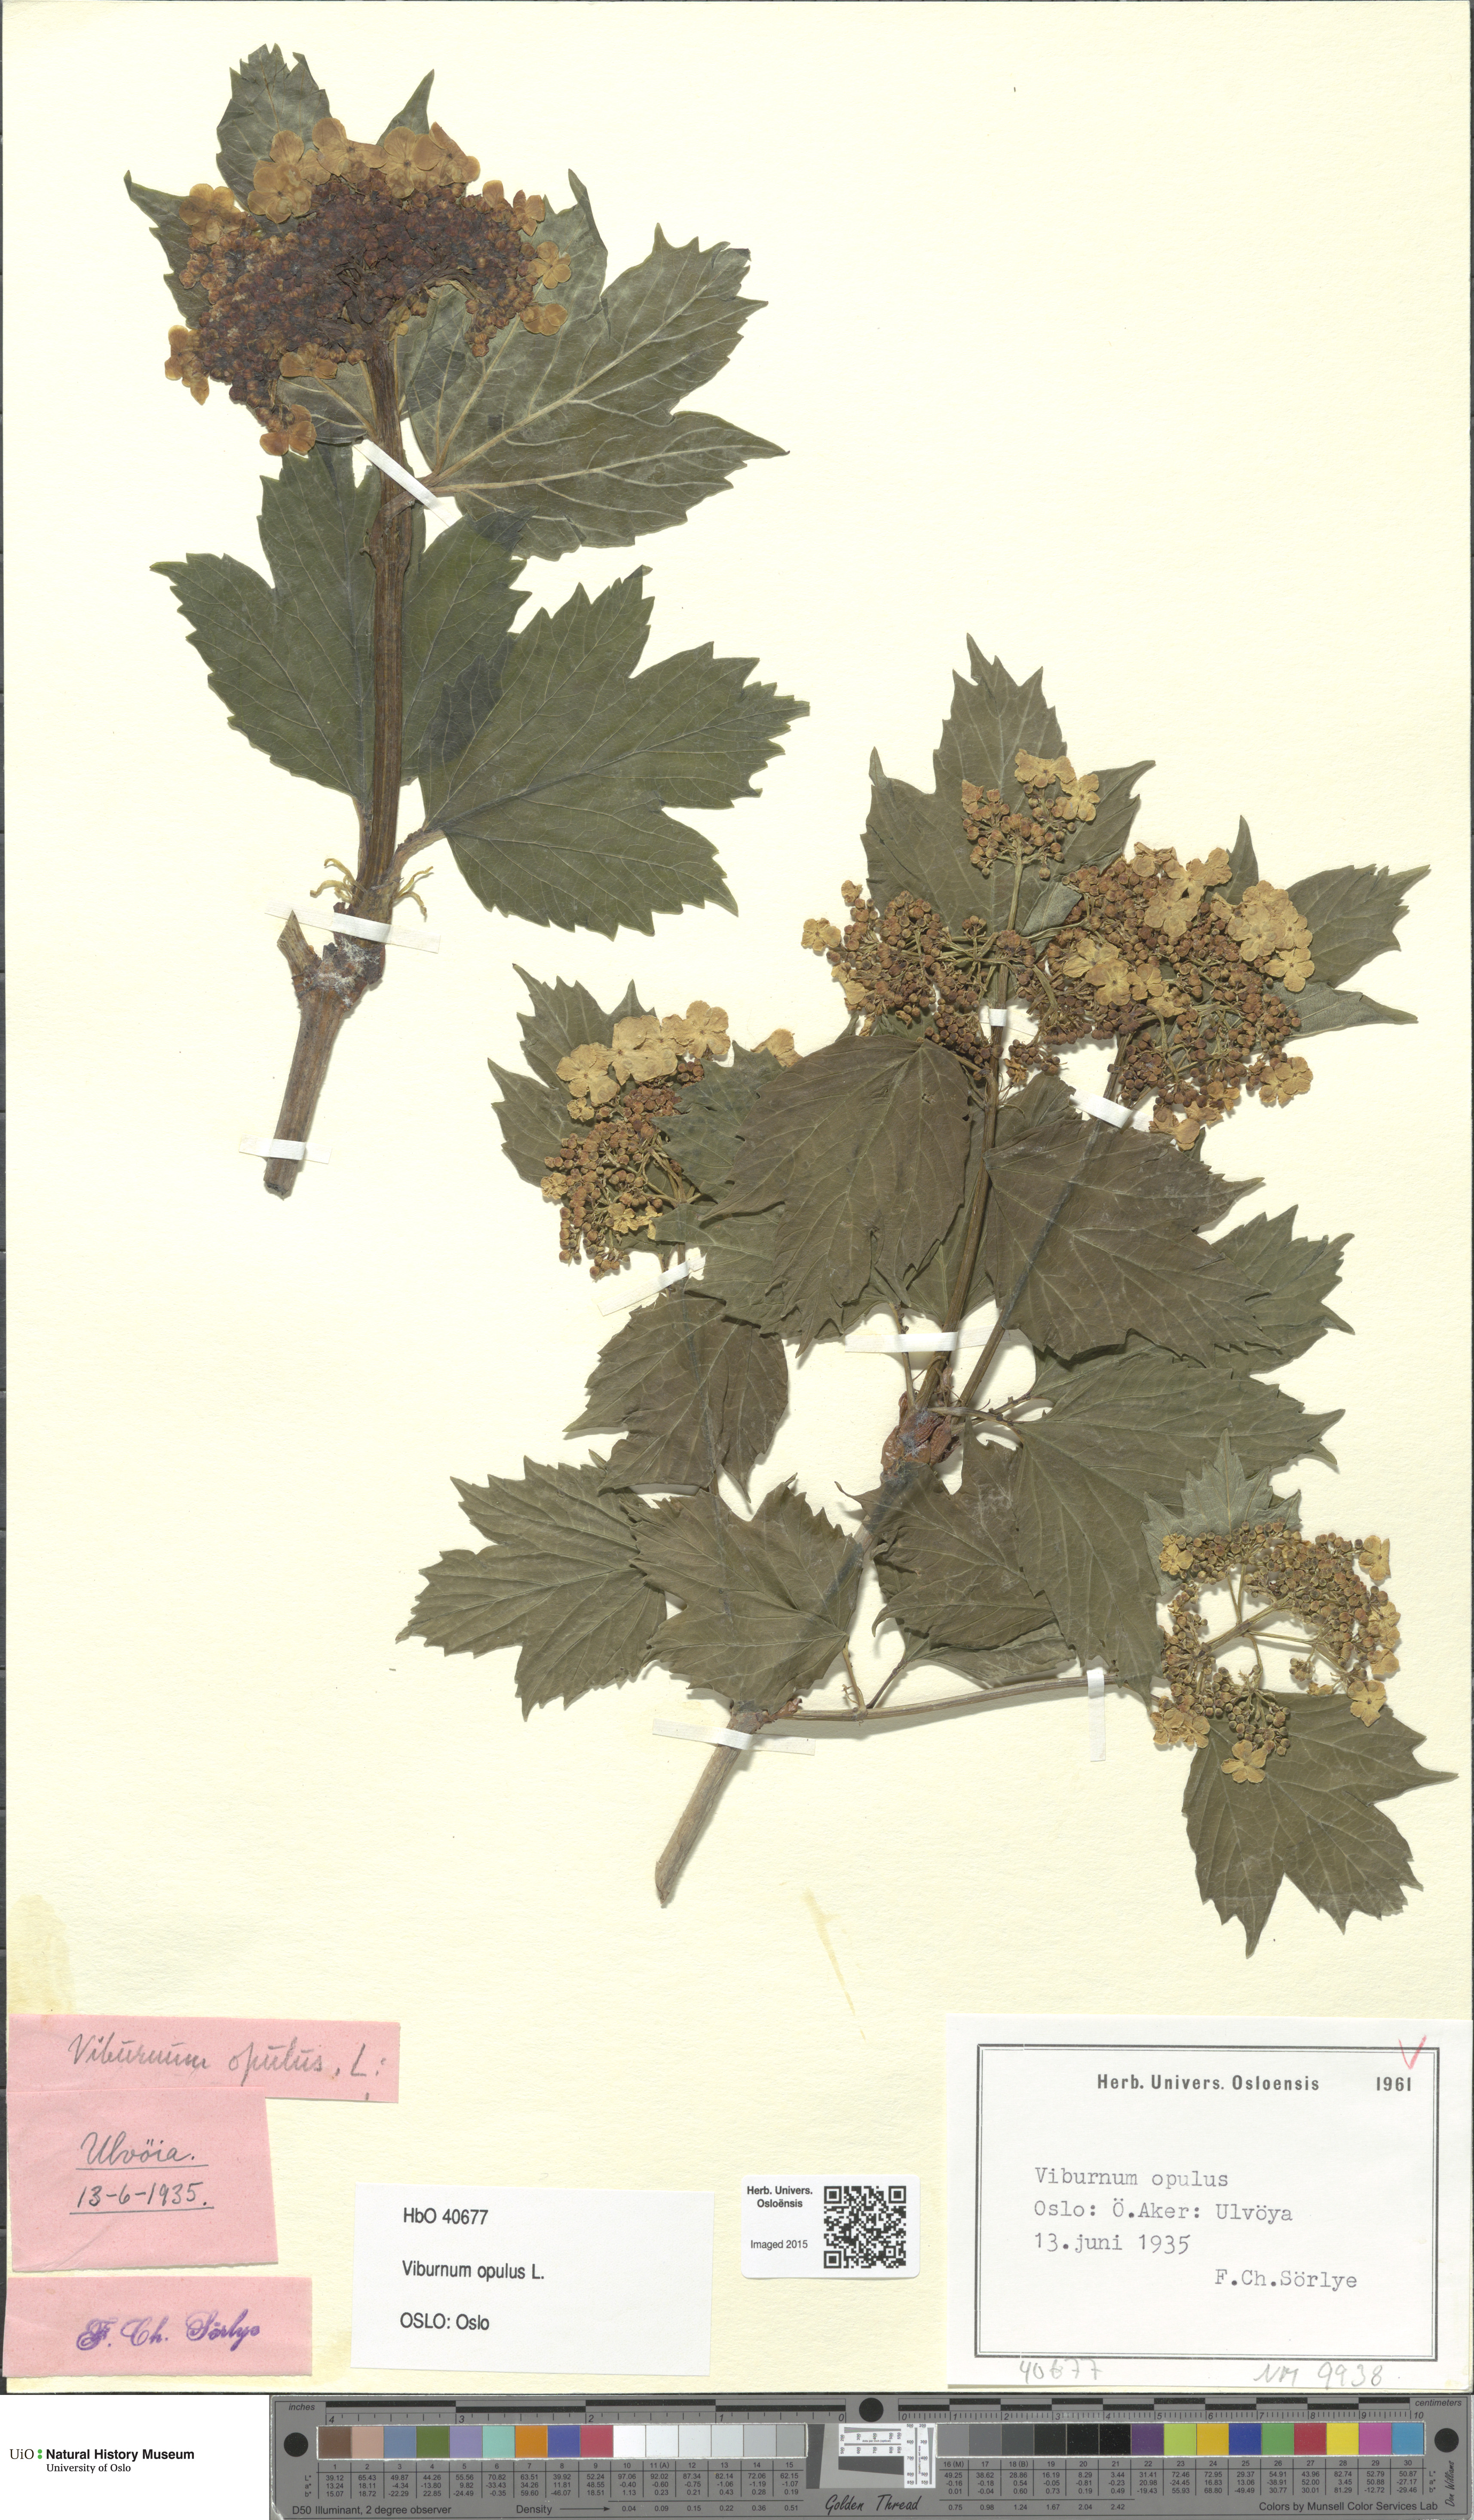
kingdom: Plantae
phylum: Tracheophyta
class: Magnoliopsida
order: Dipsacales
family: Viburnaceae
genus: Viburnum
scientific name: Viburnum opulus
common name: Guelder-rose
